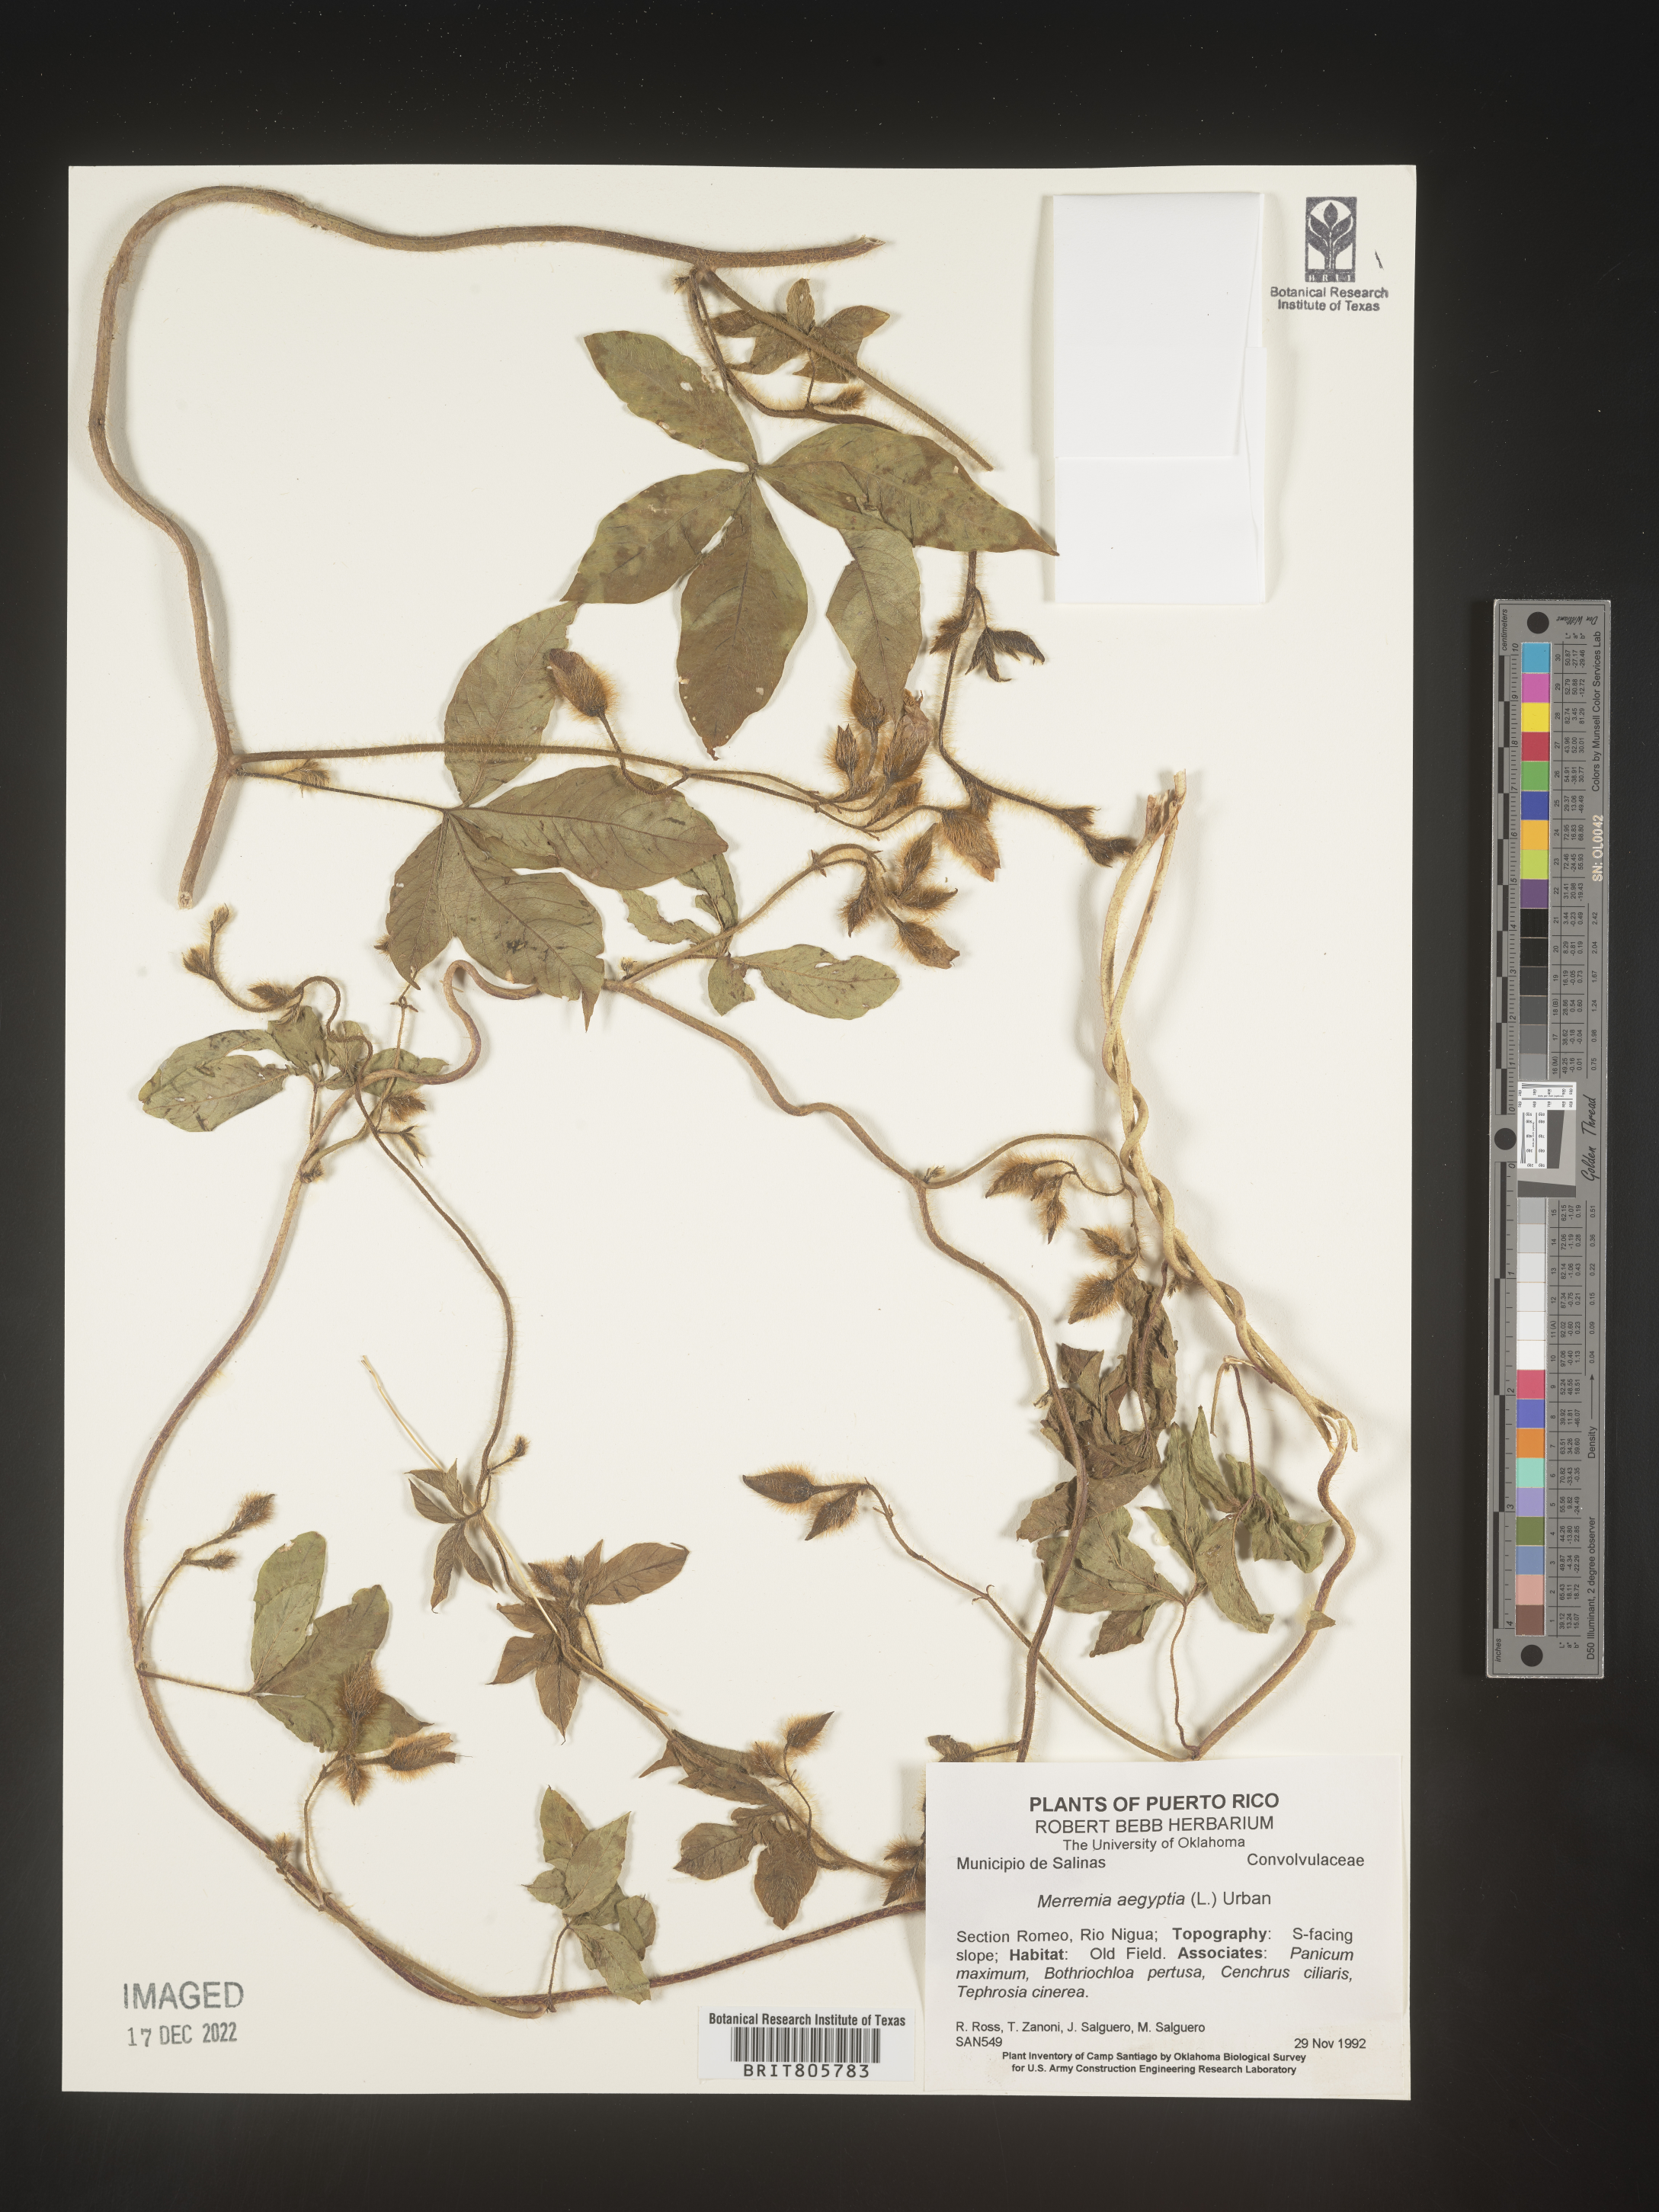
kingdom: Plantae
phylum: Tracheophyta
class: Magnoliopsida
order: Solanales
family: Convolvulaceae
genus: Merremia
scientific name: Merremia
